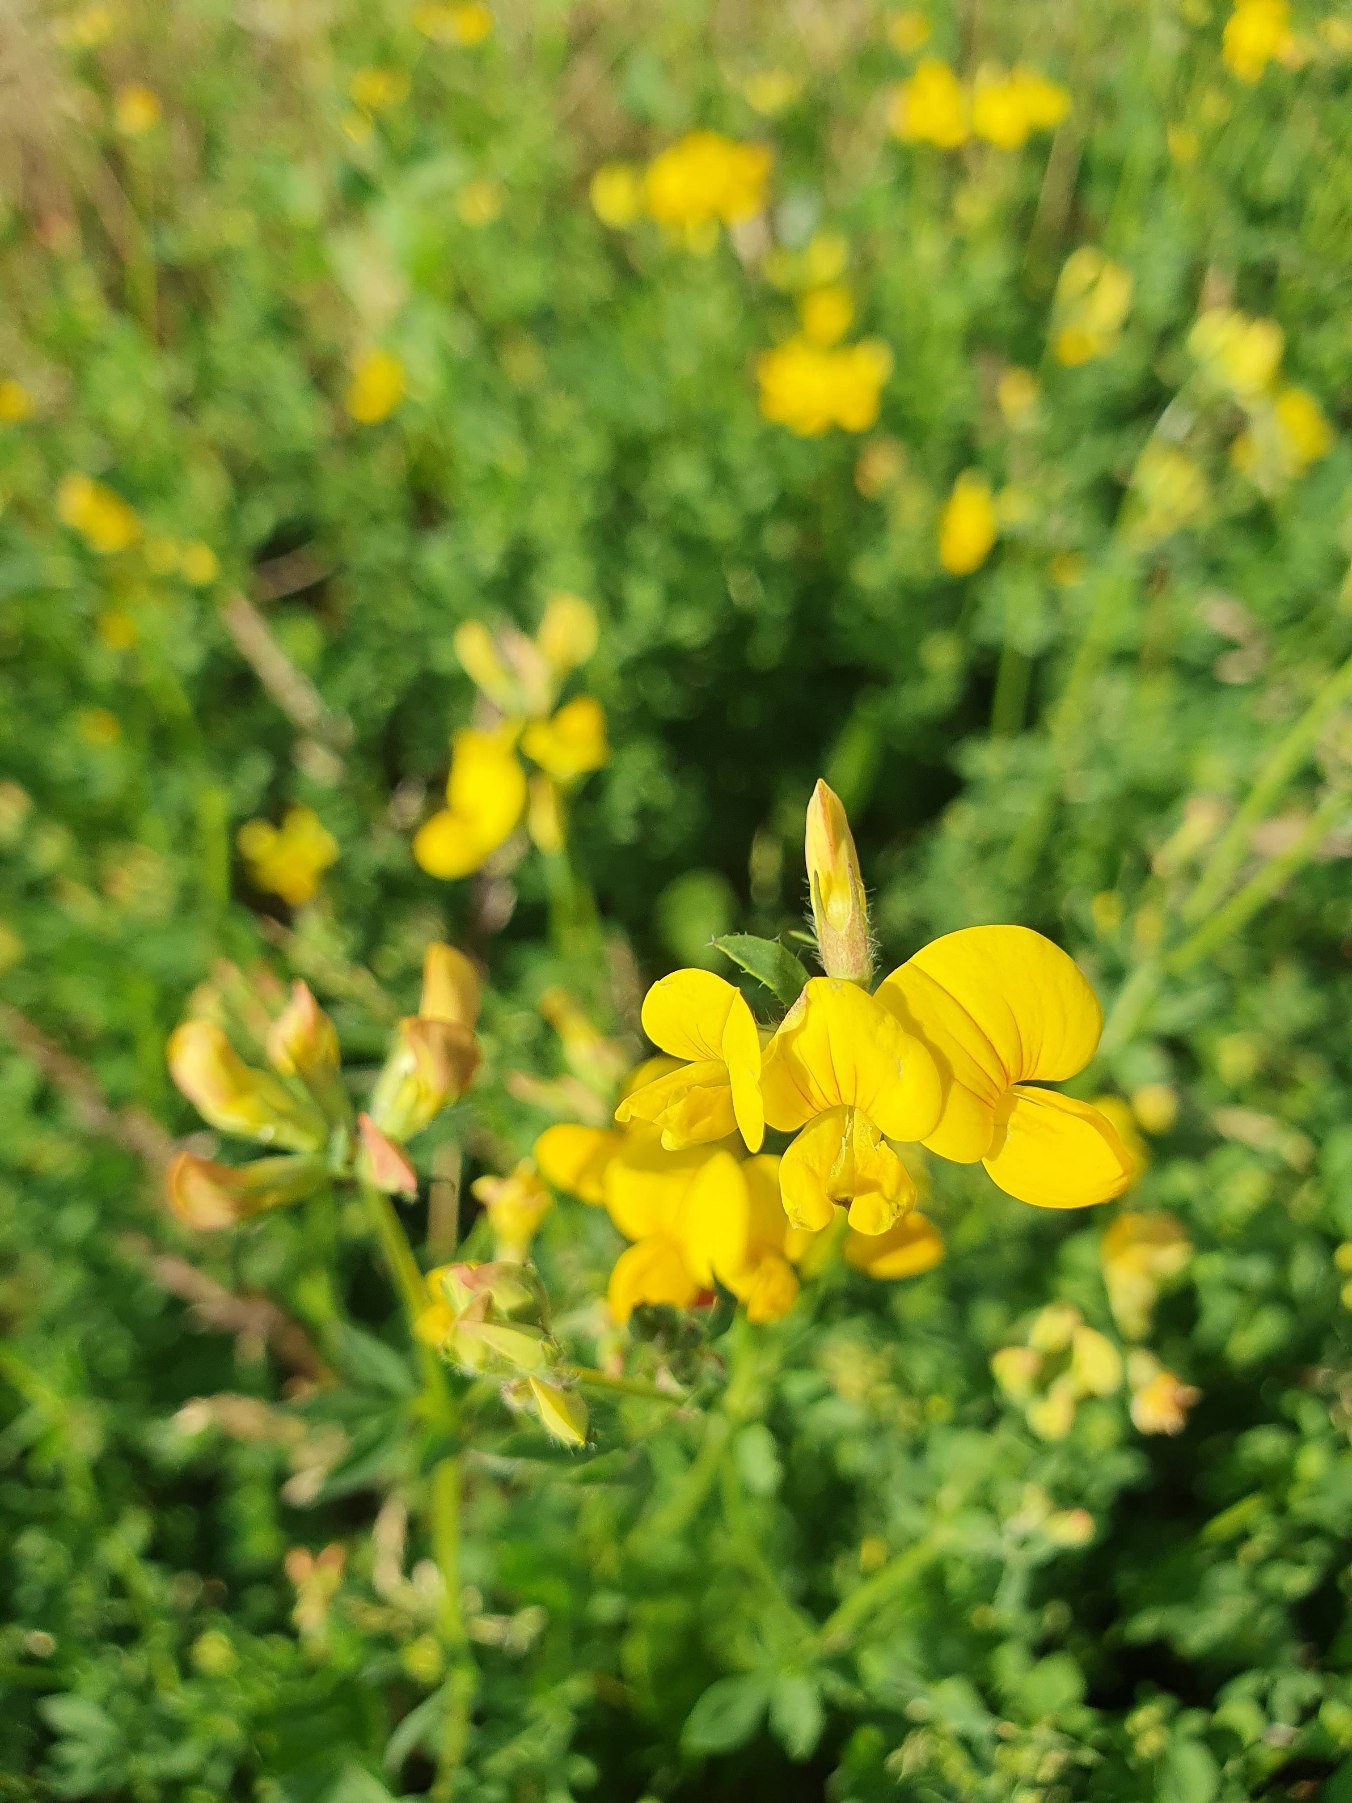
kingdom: Plantae
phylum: Tracheophyta
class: Magnoliopsida
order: Fabales
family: Fabaceae
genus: Lotus
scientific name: Lotus corniculatus
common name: Almindelig kællingetand
